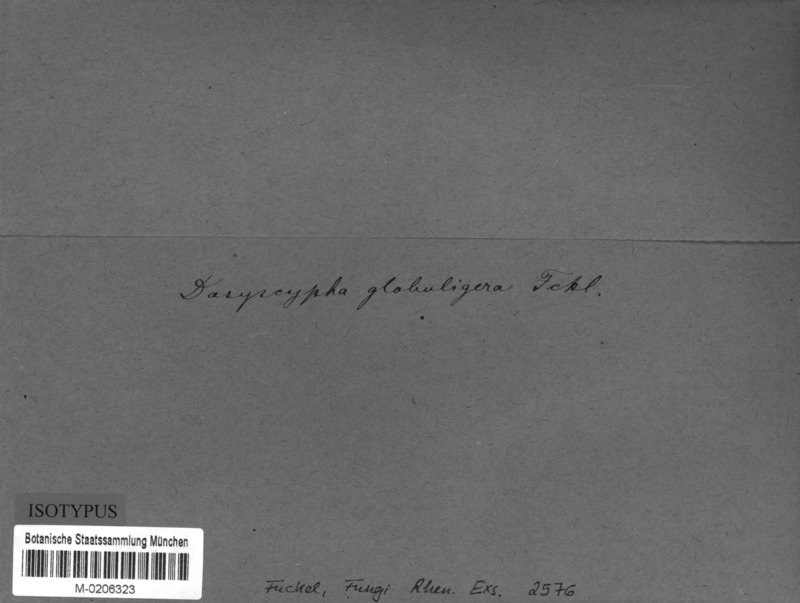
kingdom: Fungi
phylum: Ascomycota
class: Leotiomycetes
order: Helotiales
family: Lachnaceae
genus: Dasyscyphus
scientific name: Dasyscyphus globuligera
